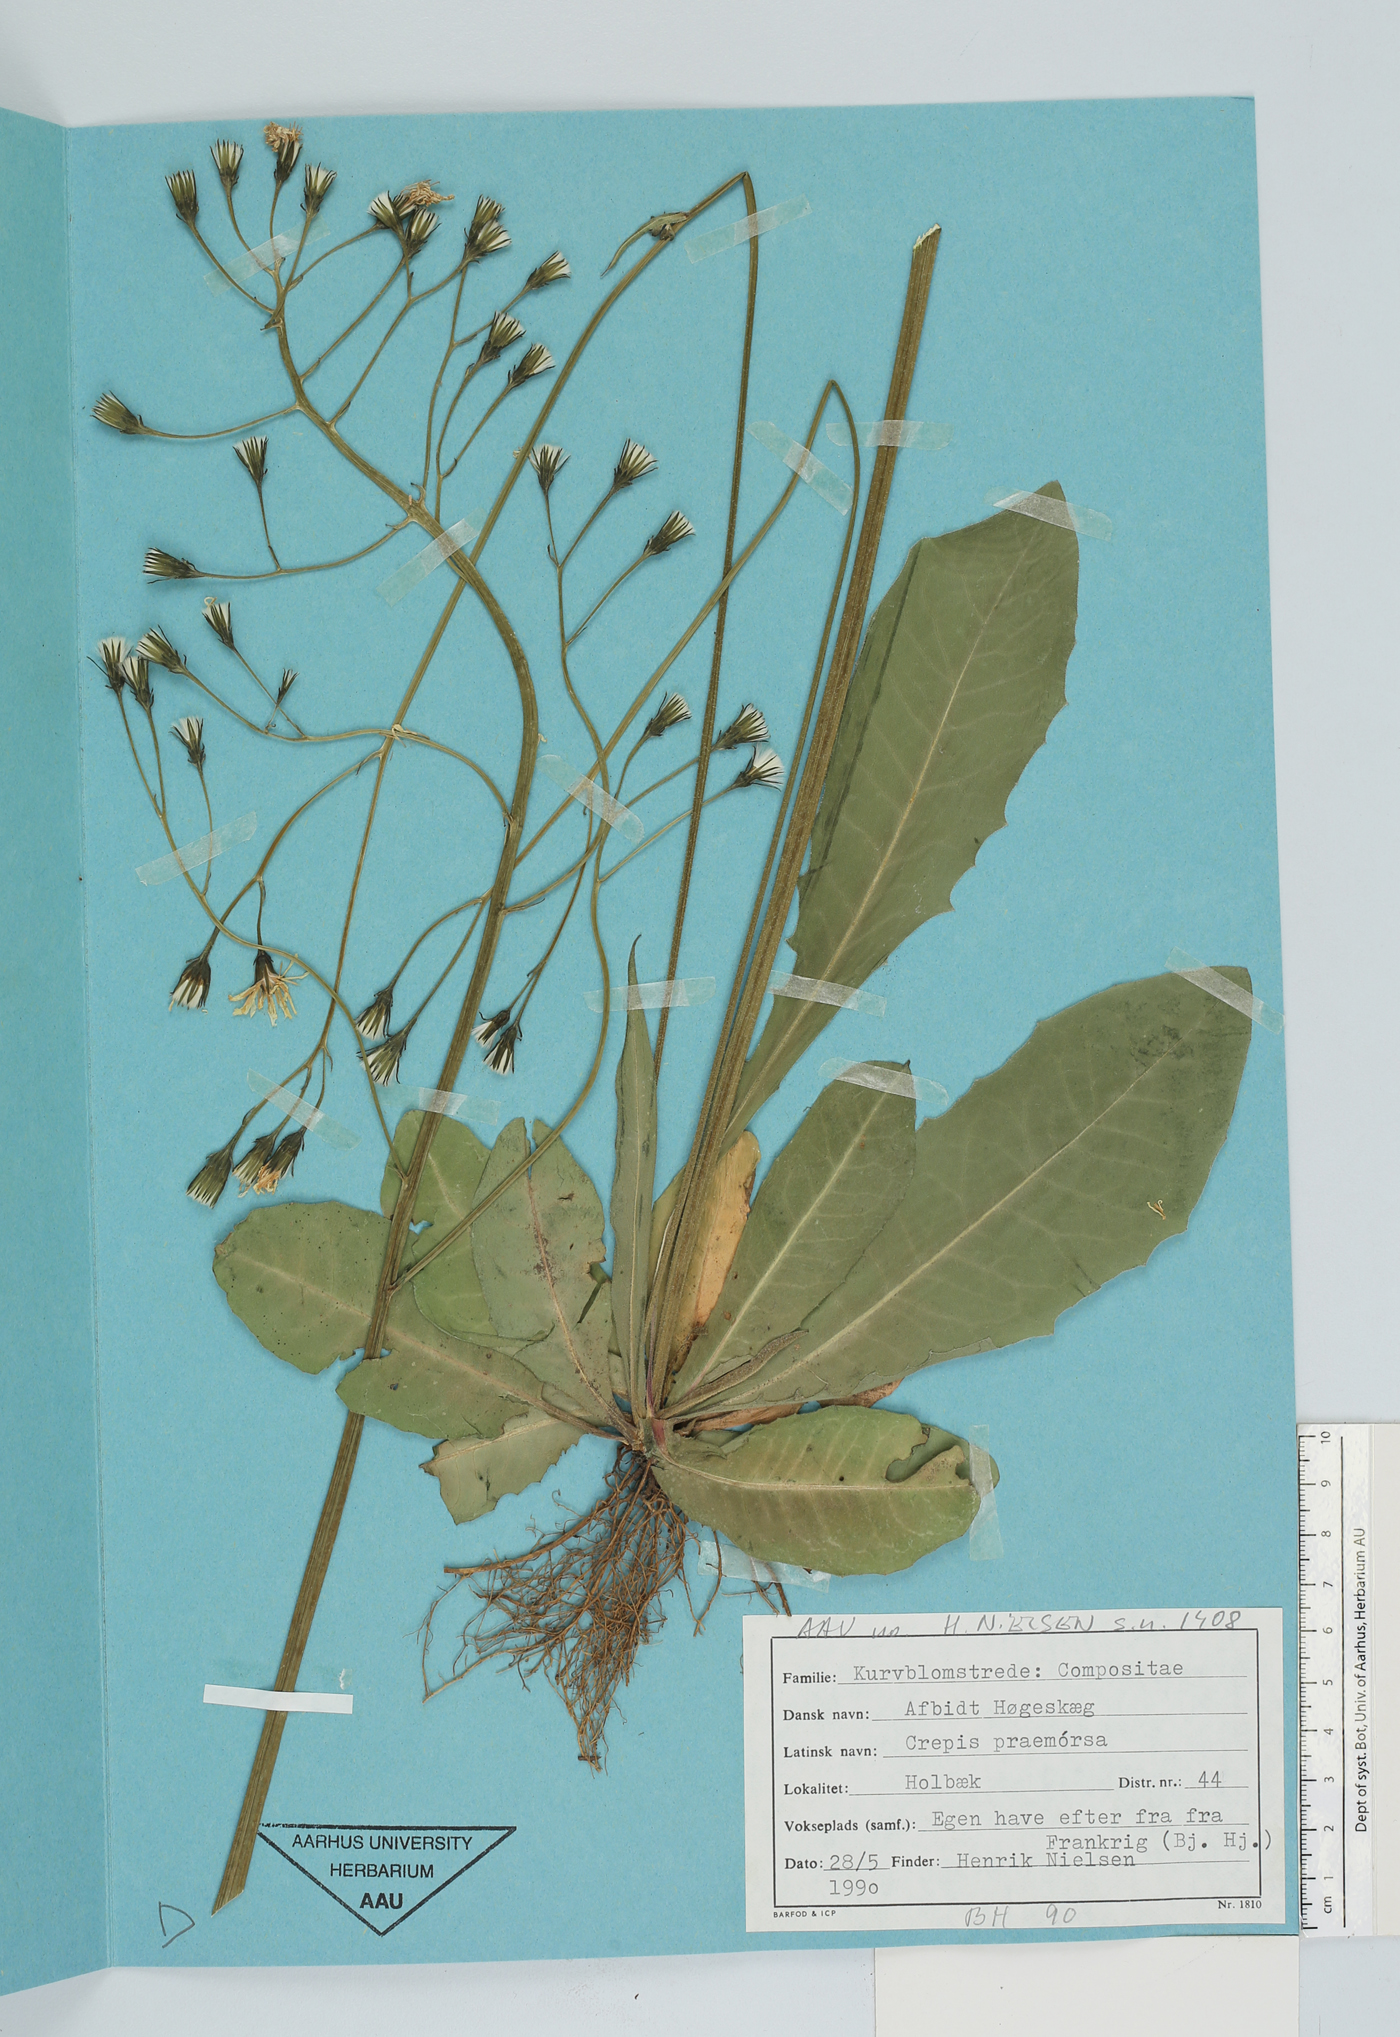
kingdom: Plantae
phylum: Tracheophyta
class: Magnoliopsida
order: Asterales
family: Asteraceae
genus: Crepis
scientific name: Crepis praemorsa
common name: Leafless hawk's-beard
